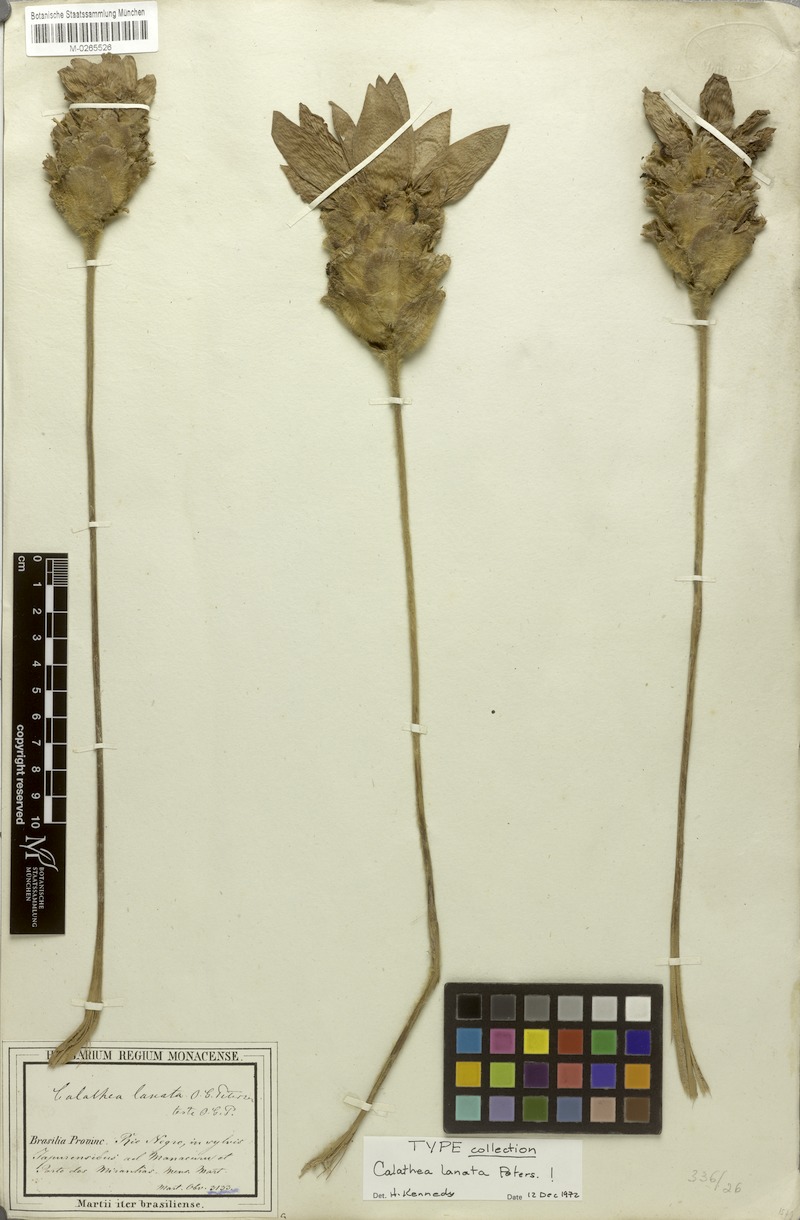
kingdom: Plantae
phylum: Tracheophyta
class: Liliopsida
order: Zingiberales
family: Marantaceae
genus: Goeppertia
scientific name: Goeppertia lanata
